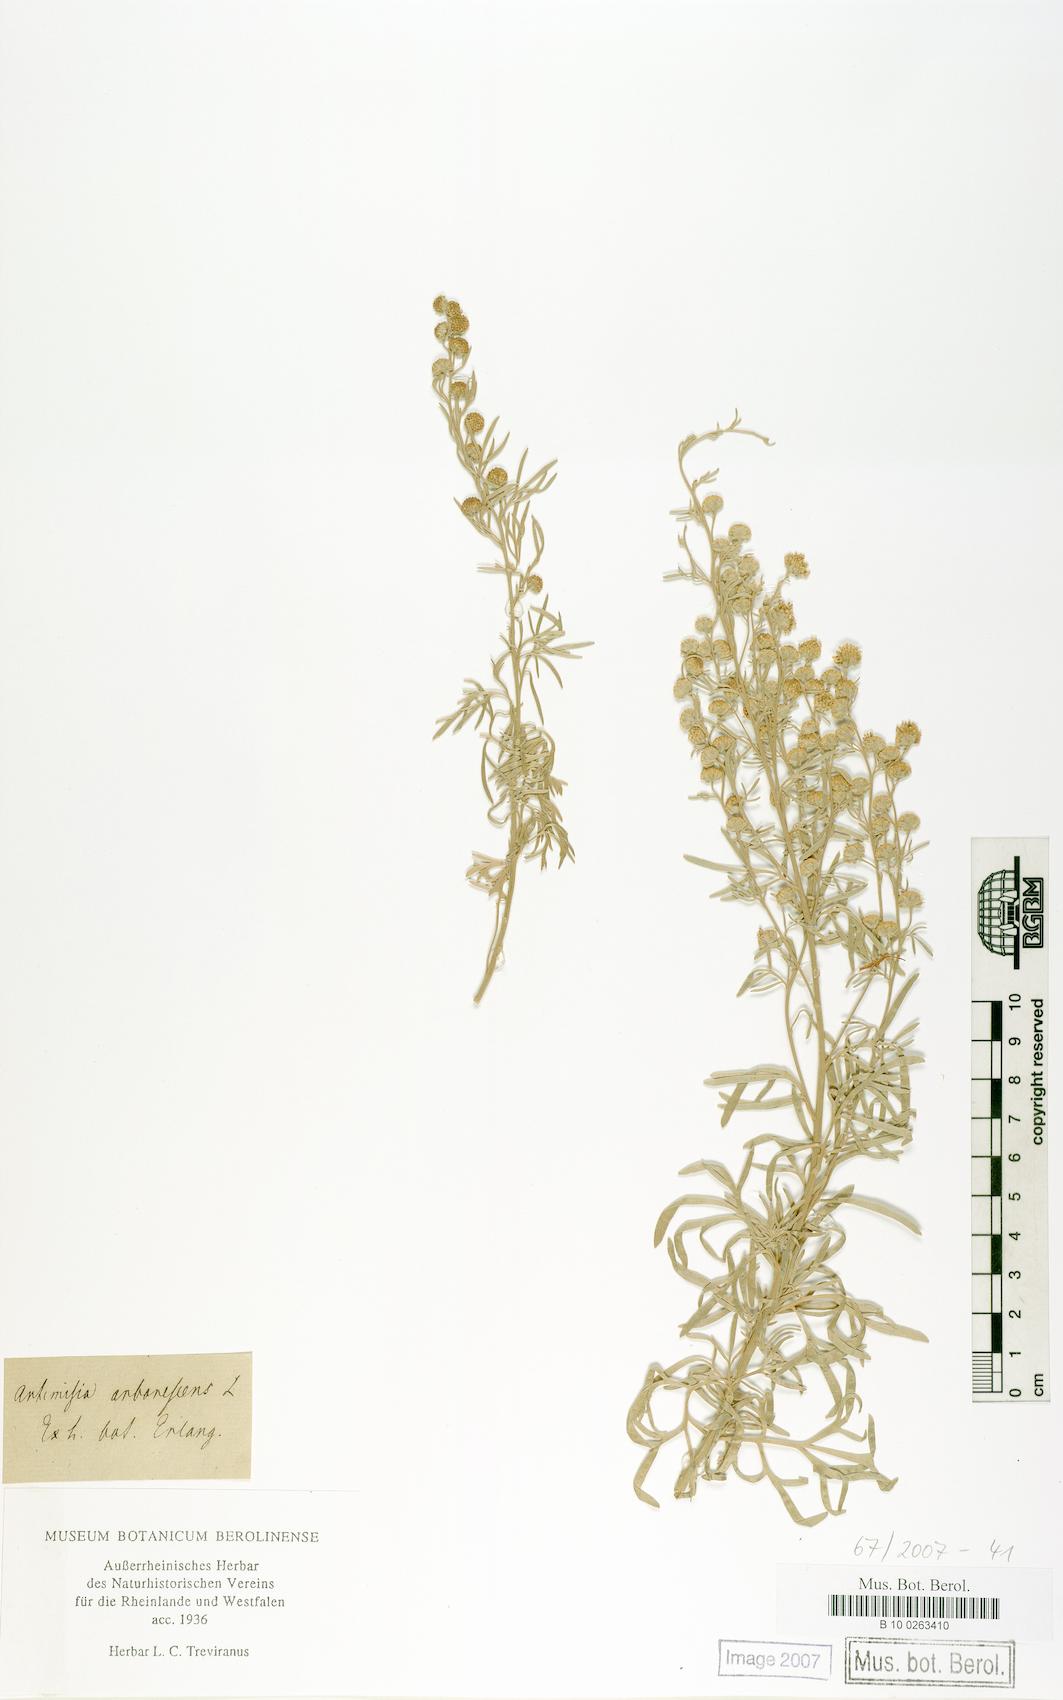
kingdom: Plantae
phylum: Tracheophyta
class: Magnoliopsida
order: Asterales
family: Asteraceae
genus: Artemisia
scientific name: Artemisia arborescens
